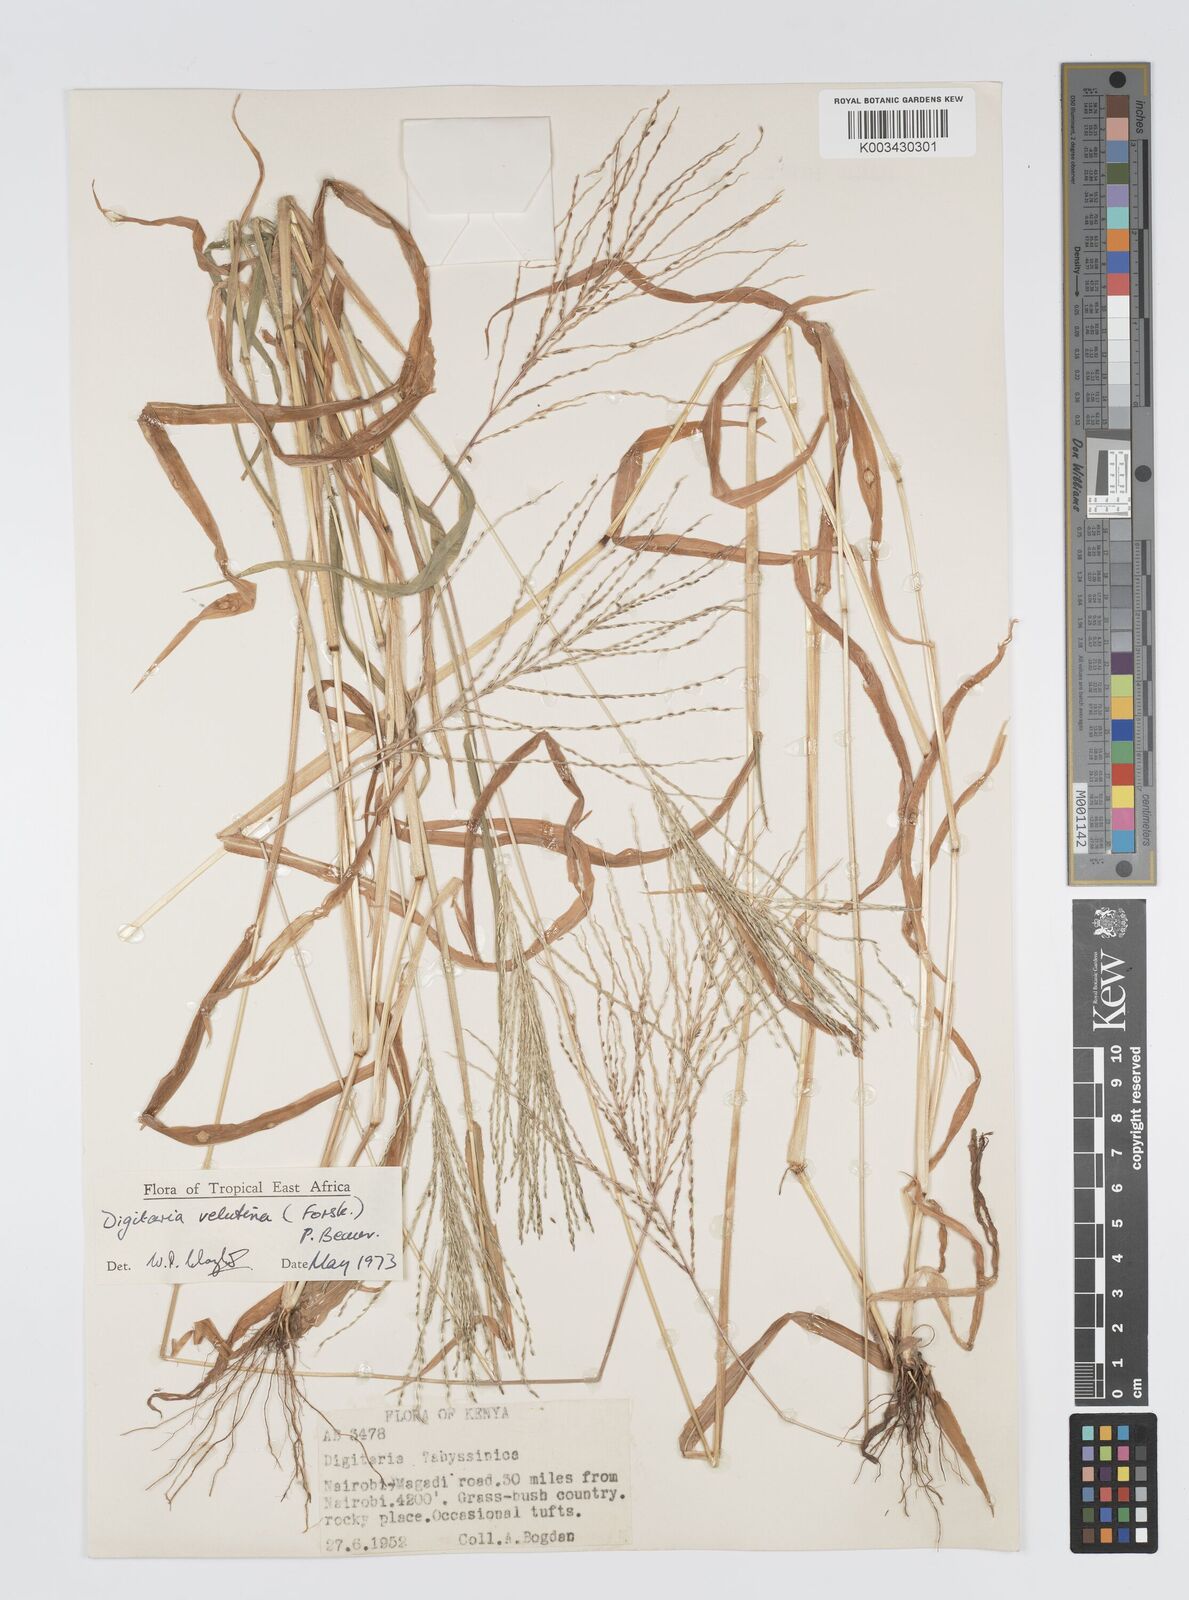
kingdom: Plantae
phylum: Tracheophyta
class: Liliopsida
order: Poales
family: Poaceae
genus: Digitaria
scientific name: Digitaria velutina
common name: Long-plume finger grass
